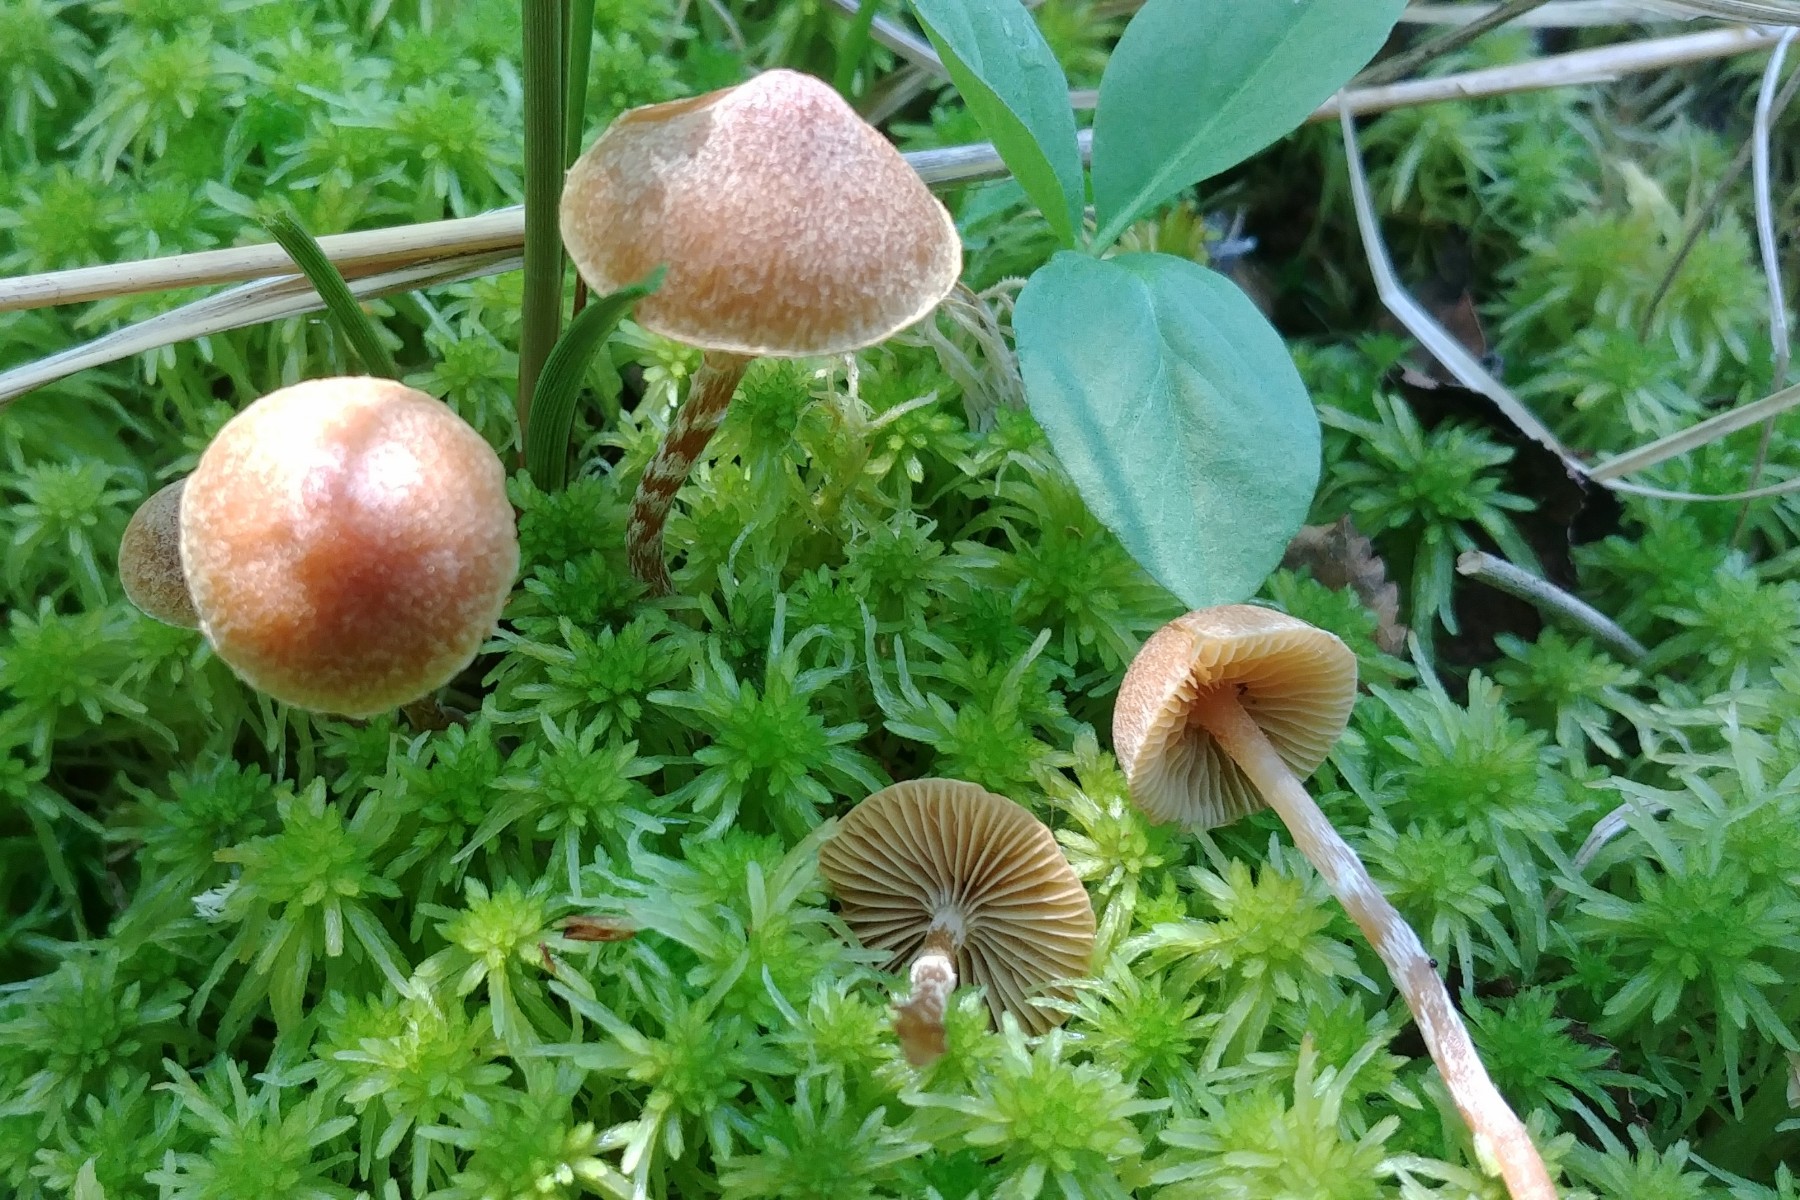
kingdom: Fungi
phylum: Basidiomycota
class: Agaricomycetes
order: Agaricales
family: Hymenogastraceae
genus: Galerina
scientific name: Galerina paludosa
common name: mose-hjelmhat
